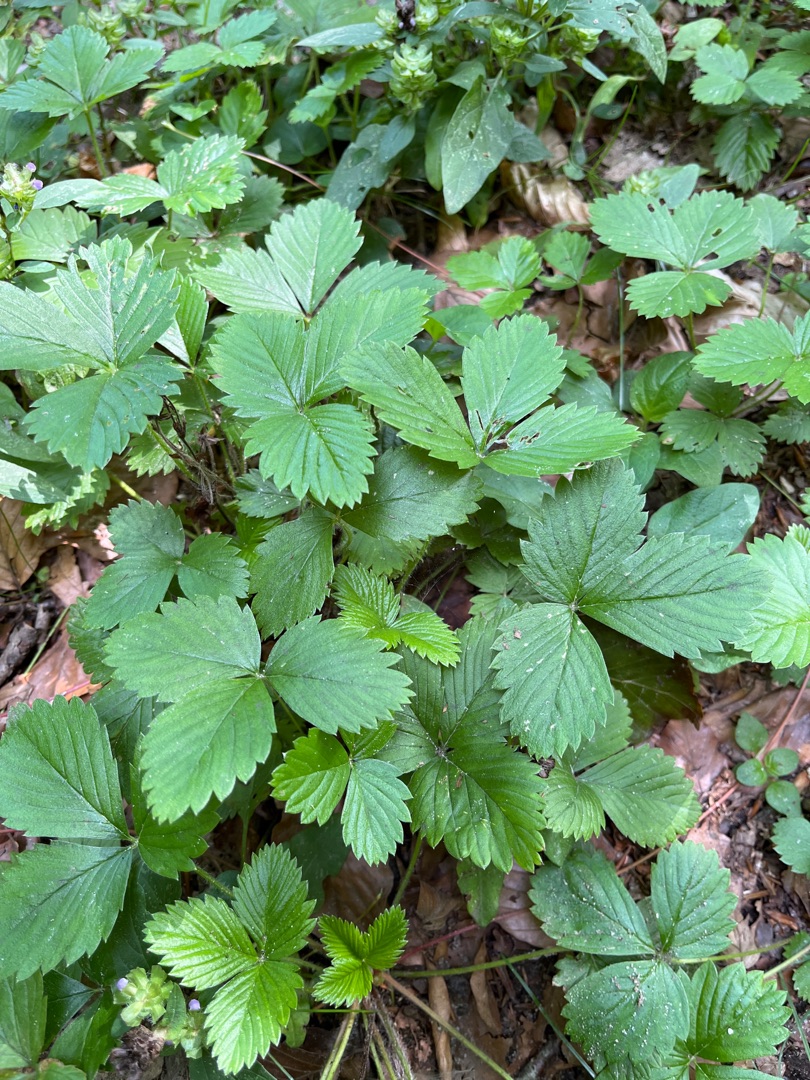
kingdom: Plantae
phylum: Tracheophyta
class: Magnoliopsida
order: Rosales
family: Rosaceae
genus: Fragaria
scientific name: Fragaria vesca
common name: Skov-jordbær
